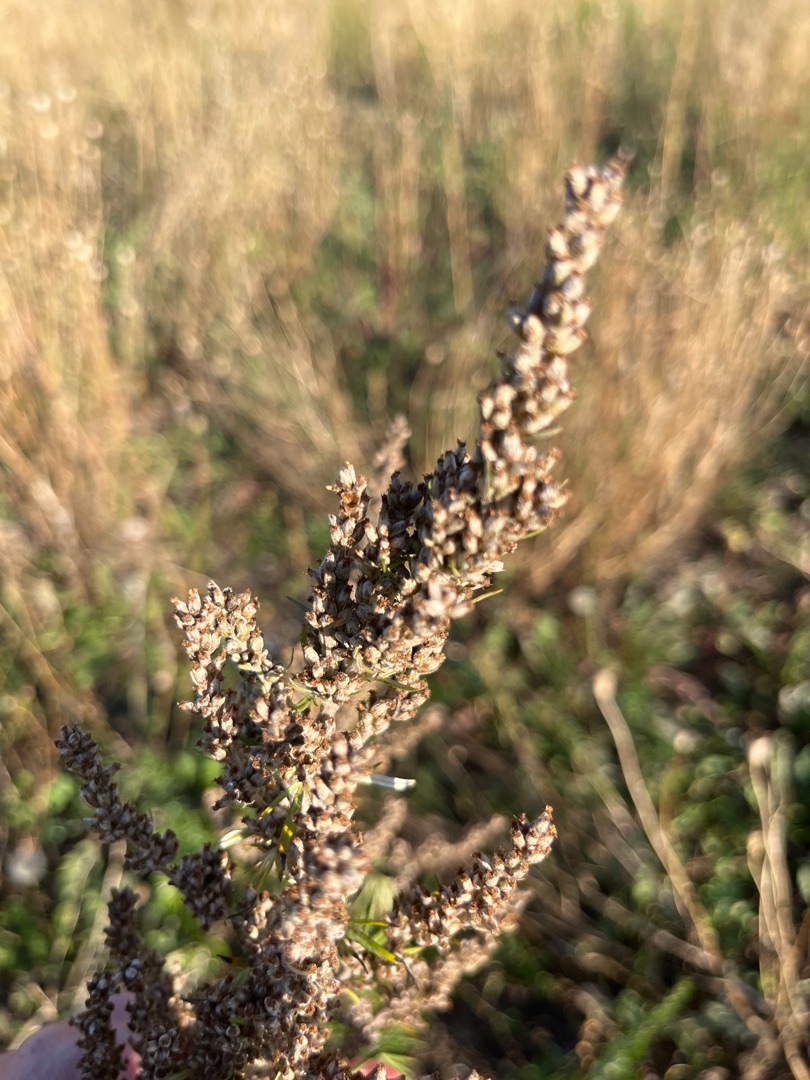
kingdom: Plantae
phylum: Tracheophyta
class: Magnoliopsida
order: Asterales
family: Asteraceae
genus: Artemisia
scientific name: Artemisia vulgaris
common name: Grå-bynke
